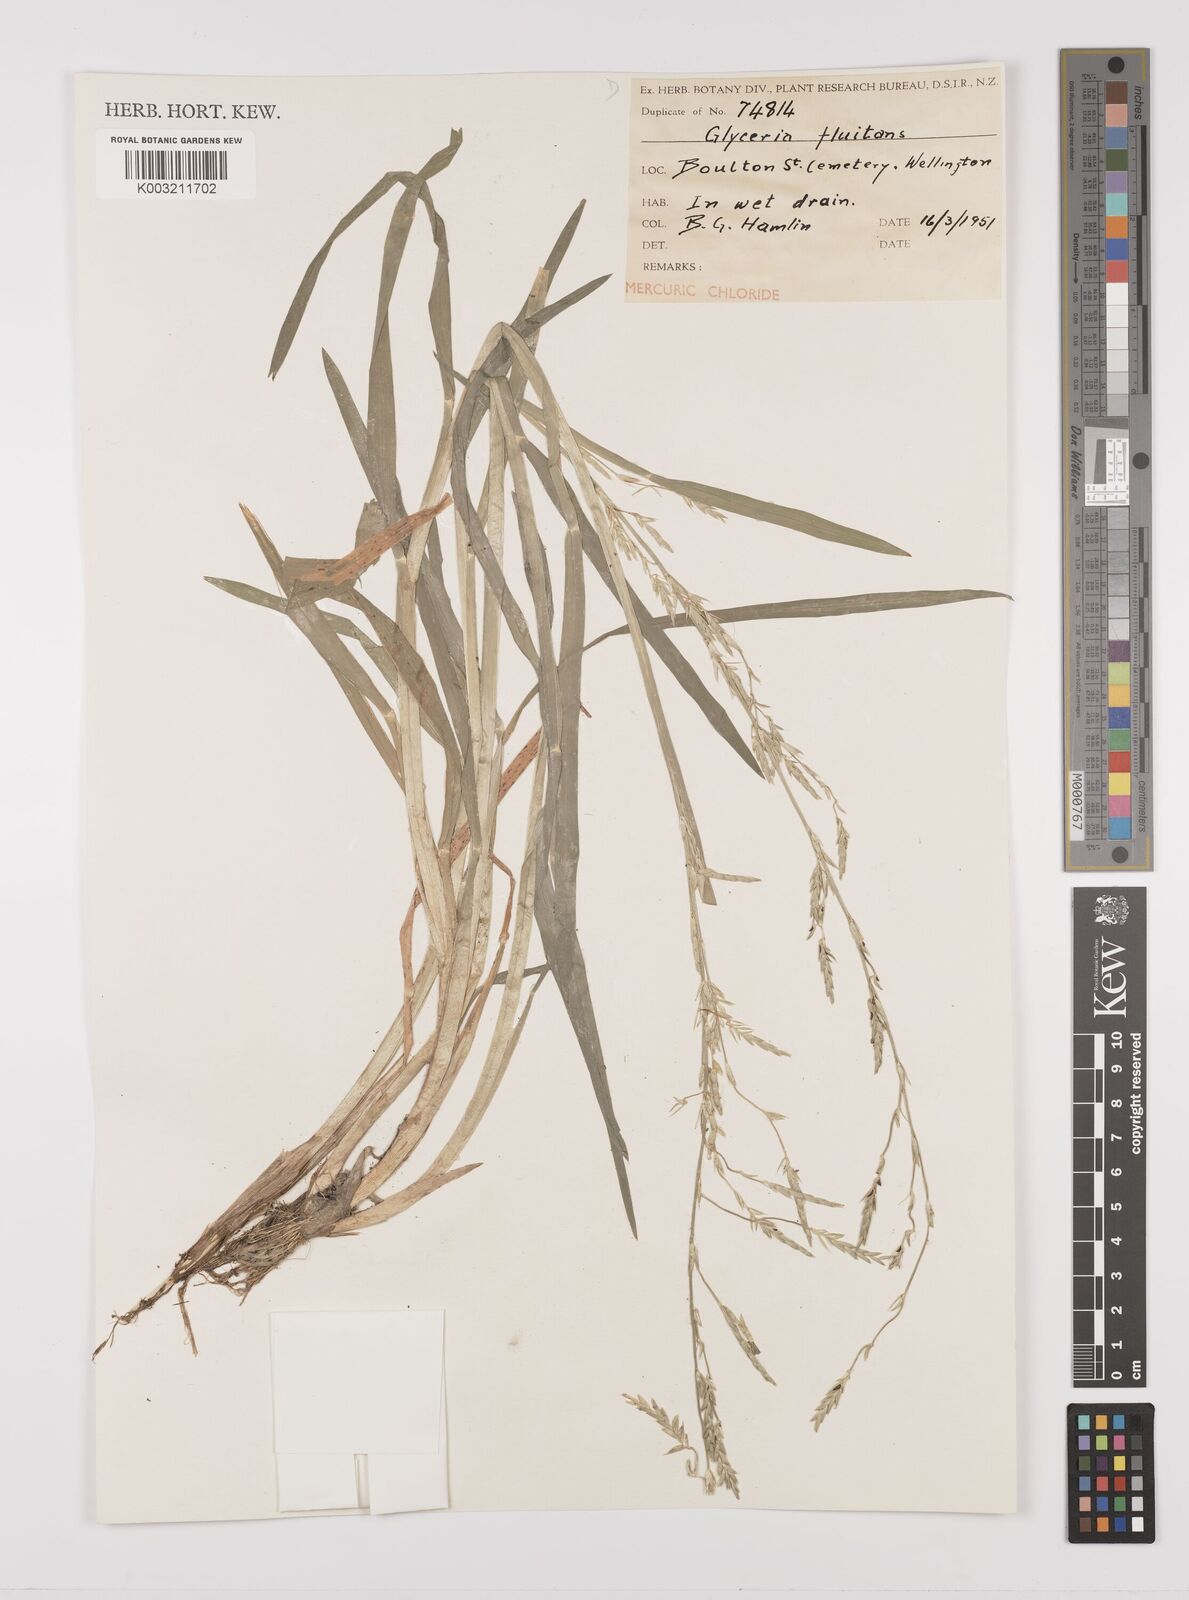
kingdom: Plantae
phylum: Tracheophyta
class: Liliopsida
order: Poales
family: Poaceae
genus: Glyceria
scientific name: Glyceria fluitans
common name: Floating sweet-grass
